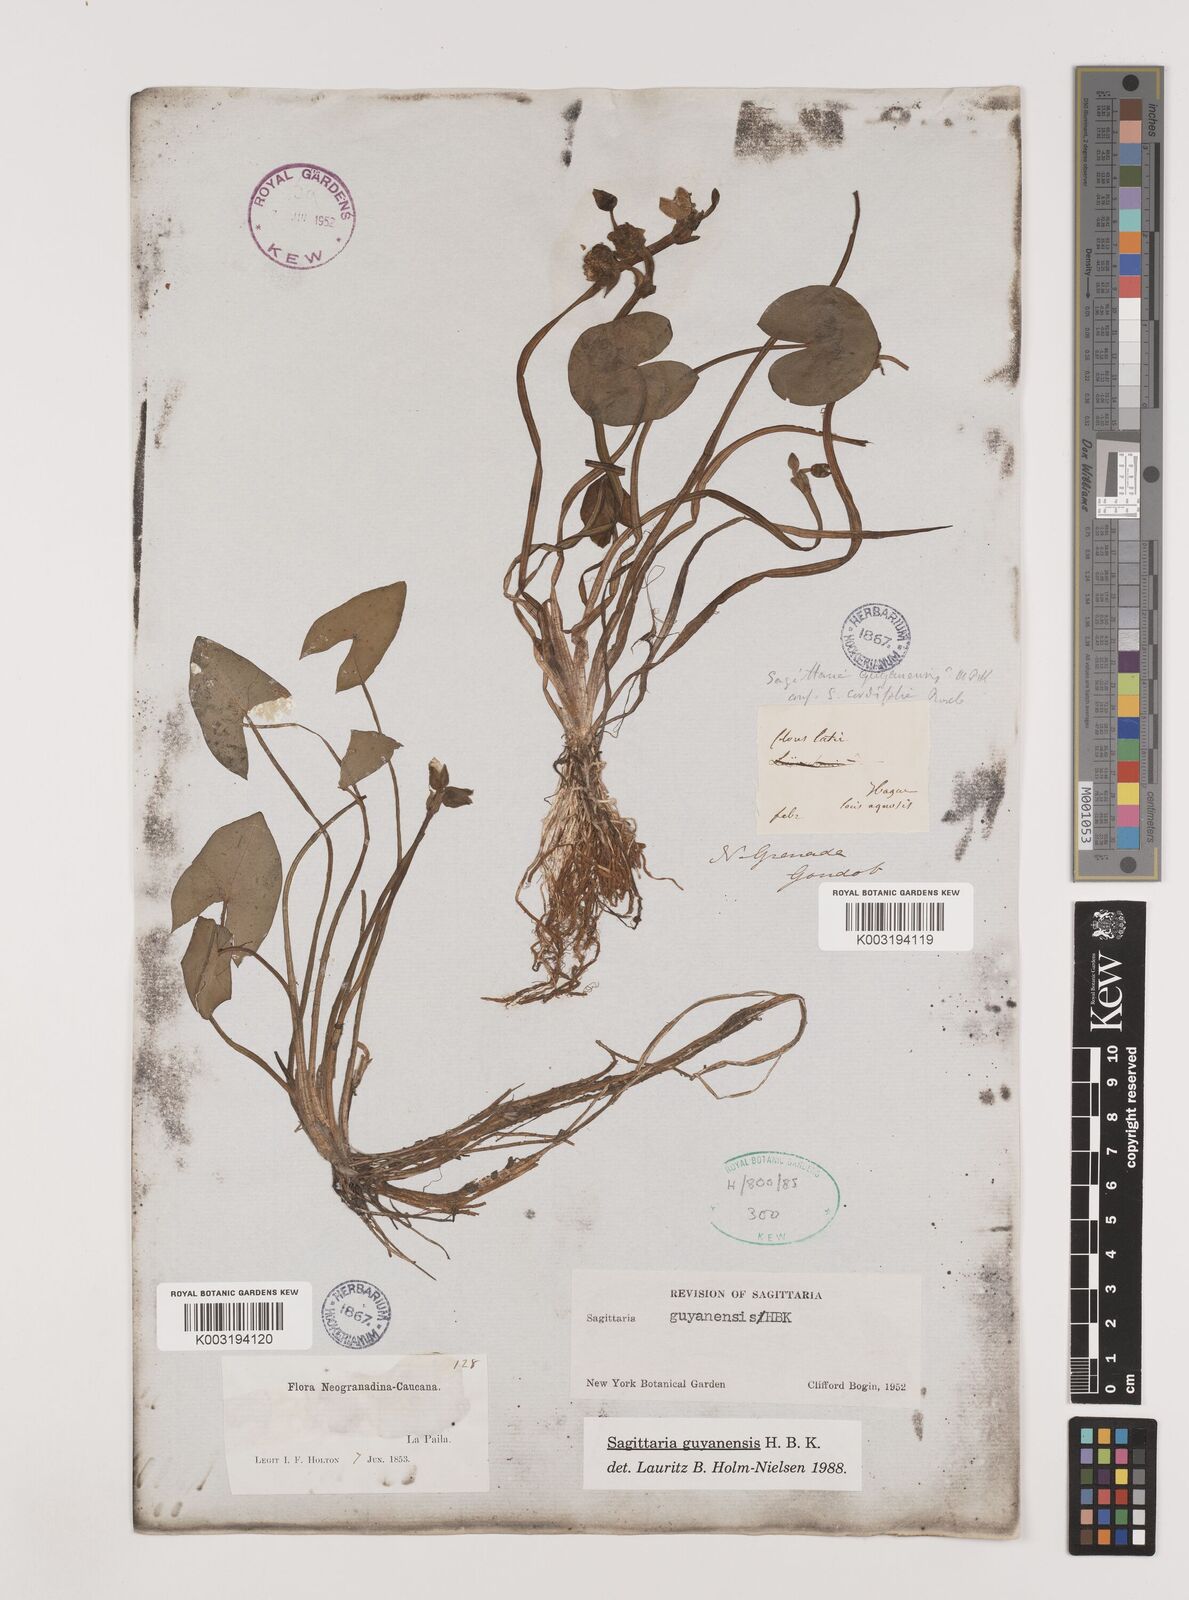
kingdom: Plantae
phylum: Tracheophyta
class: Liliopsida
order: Alismatales
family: Alismataceae
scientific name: Alismataceae
